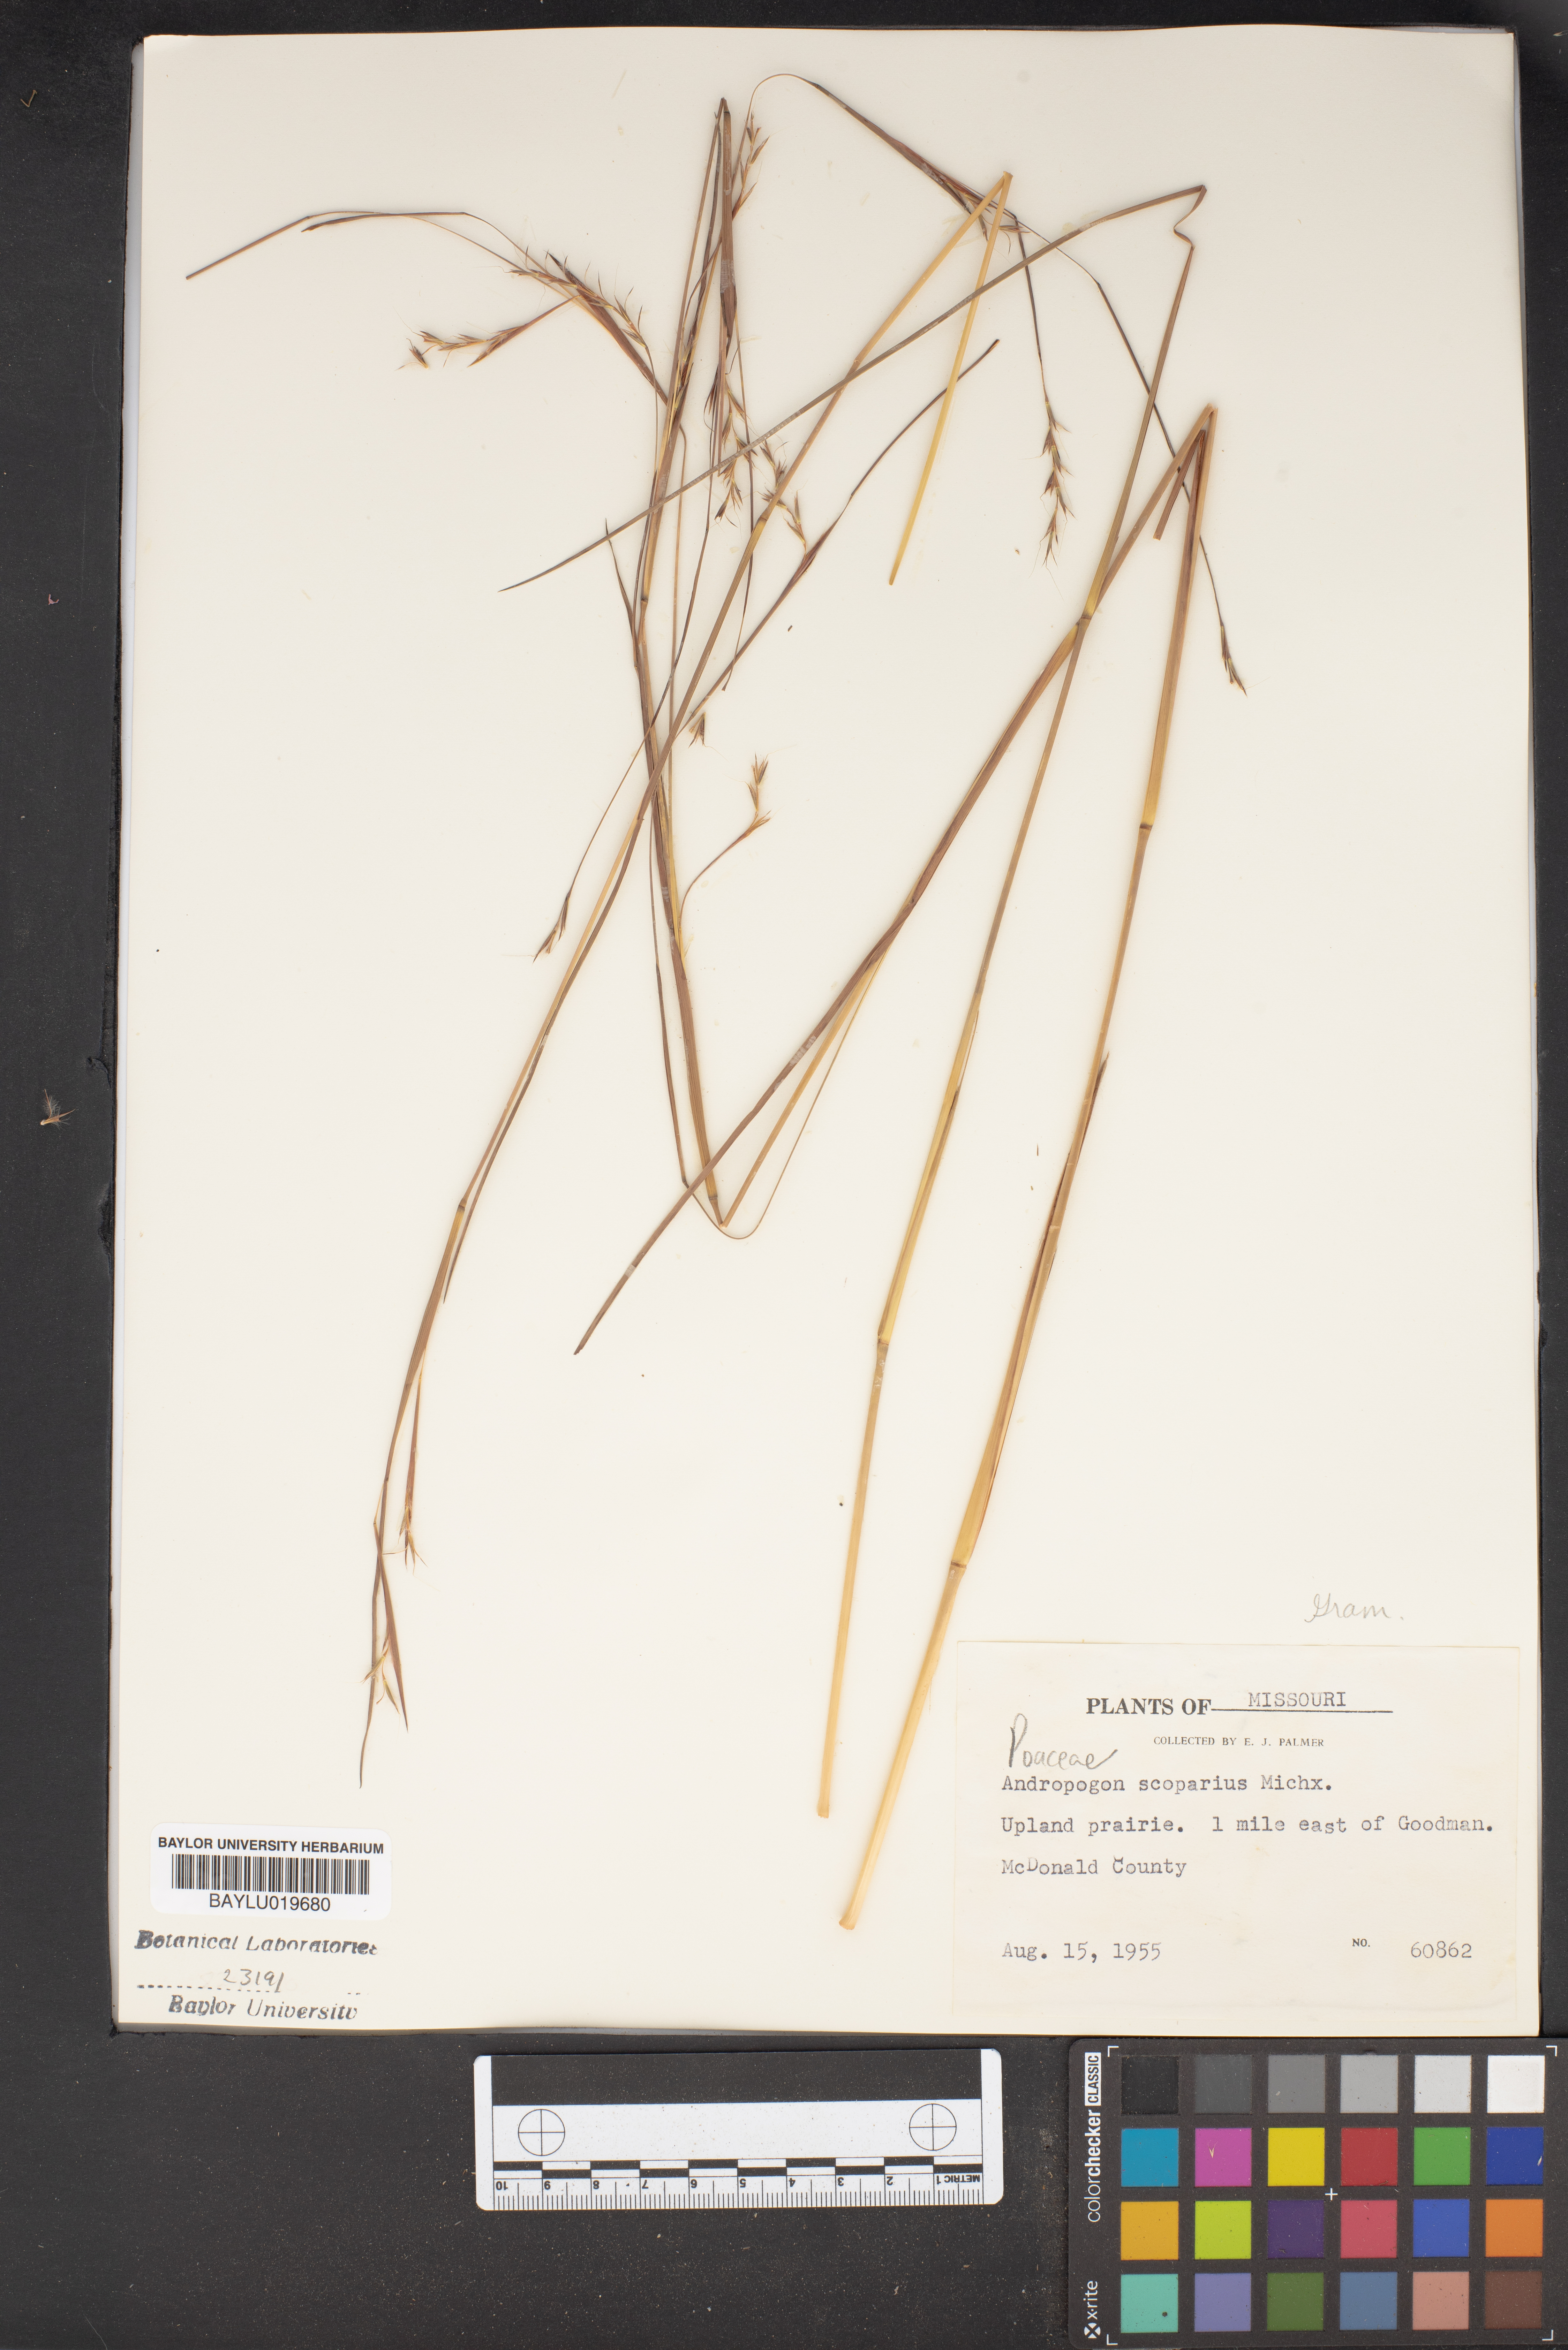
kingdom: Plantae
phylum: Tracheophyta
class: Liliopsida
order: Poales
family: Poaceae
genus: Schizachyrium
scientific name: Schizachyrium scoparium
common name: Little bluestem
